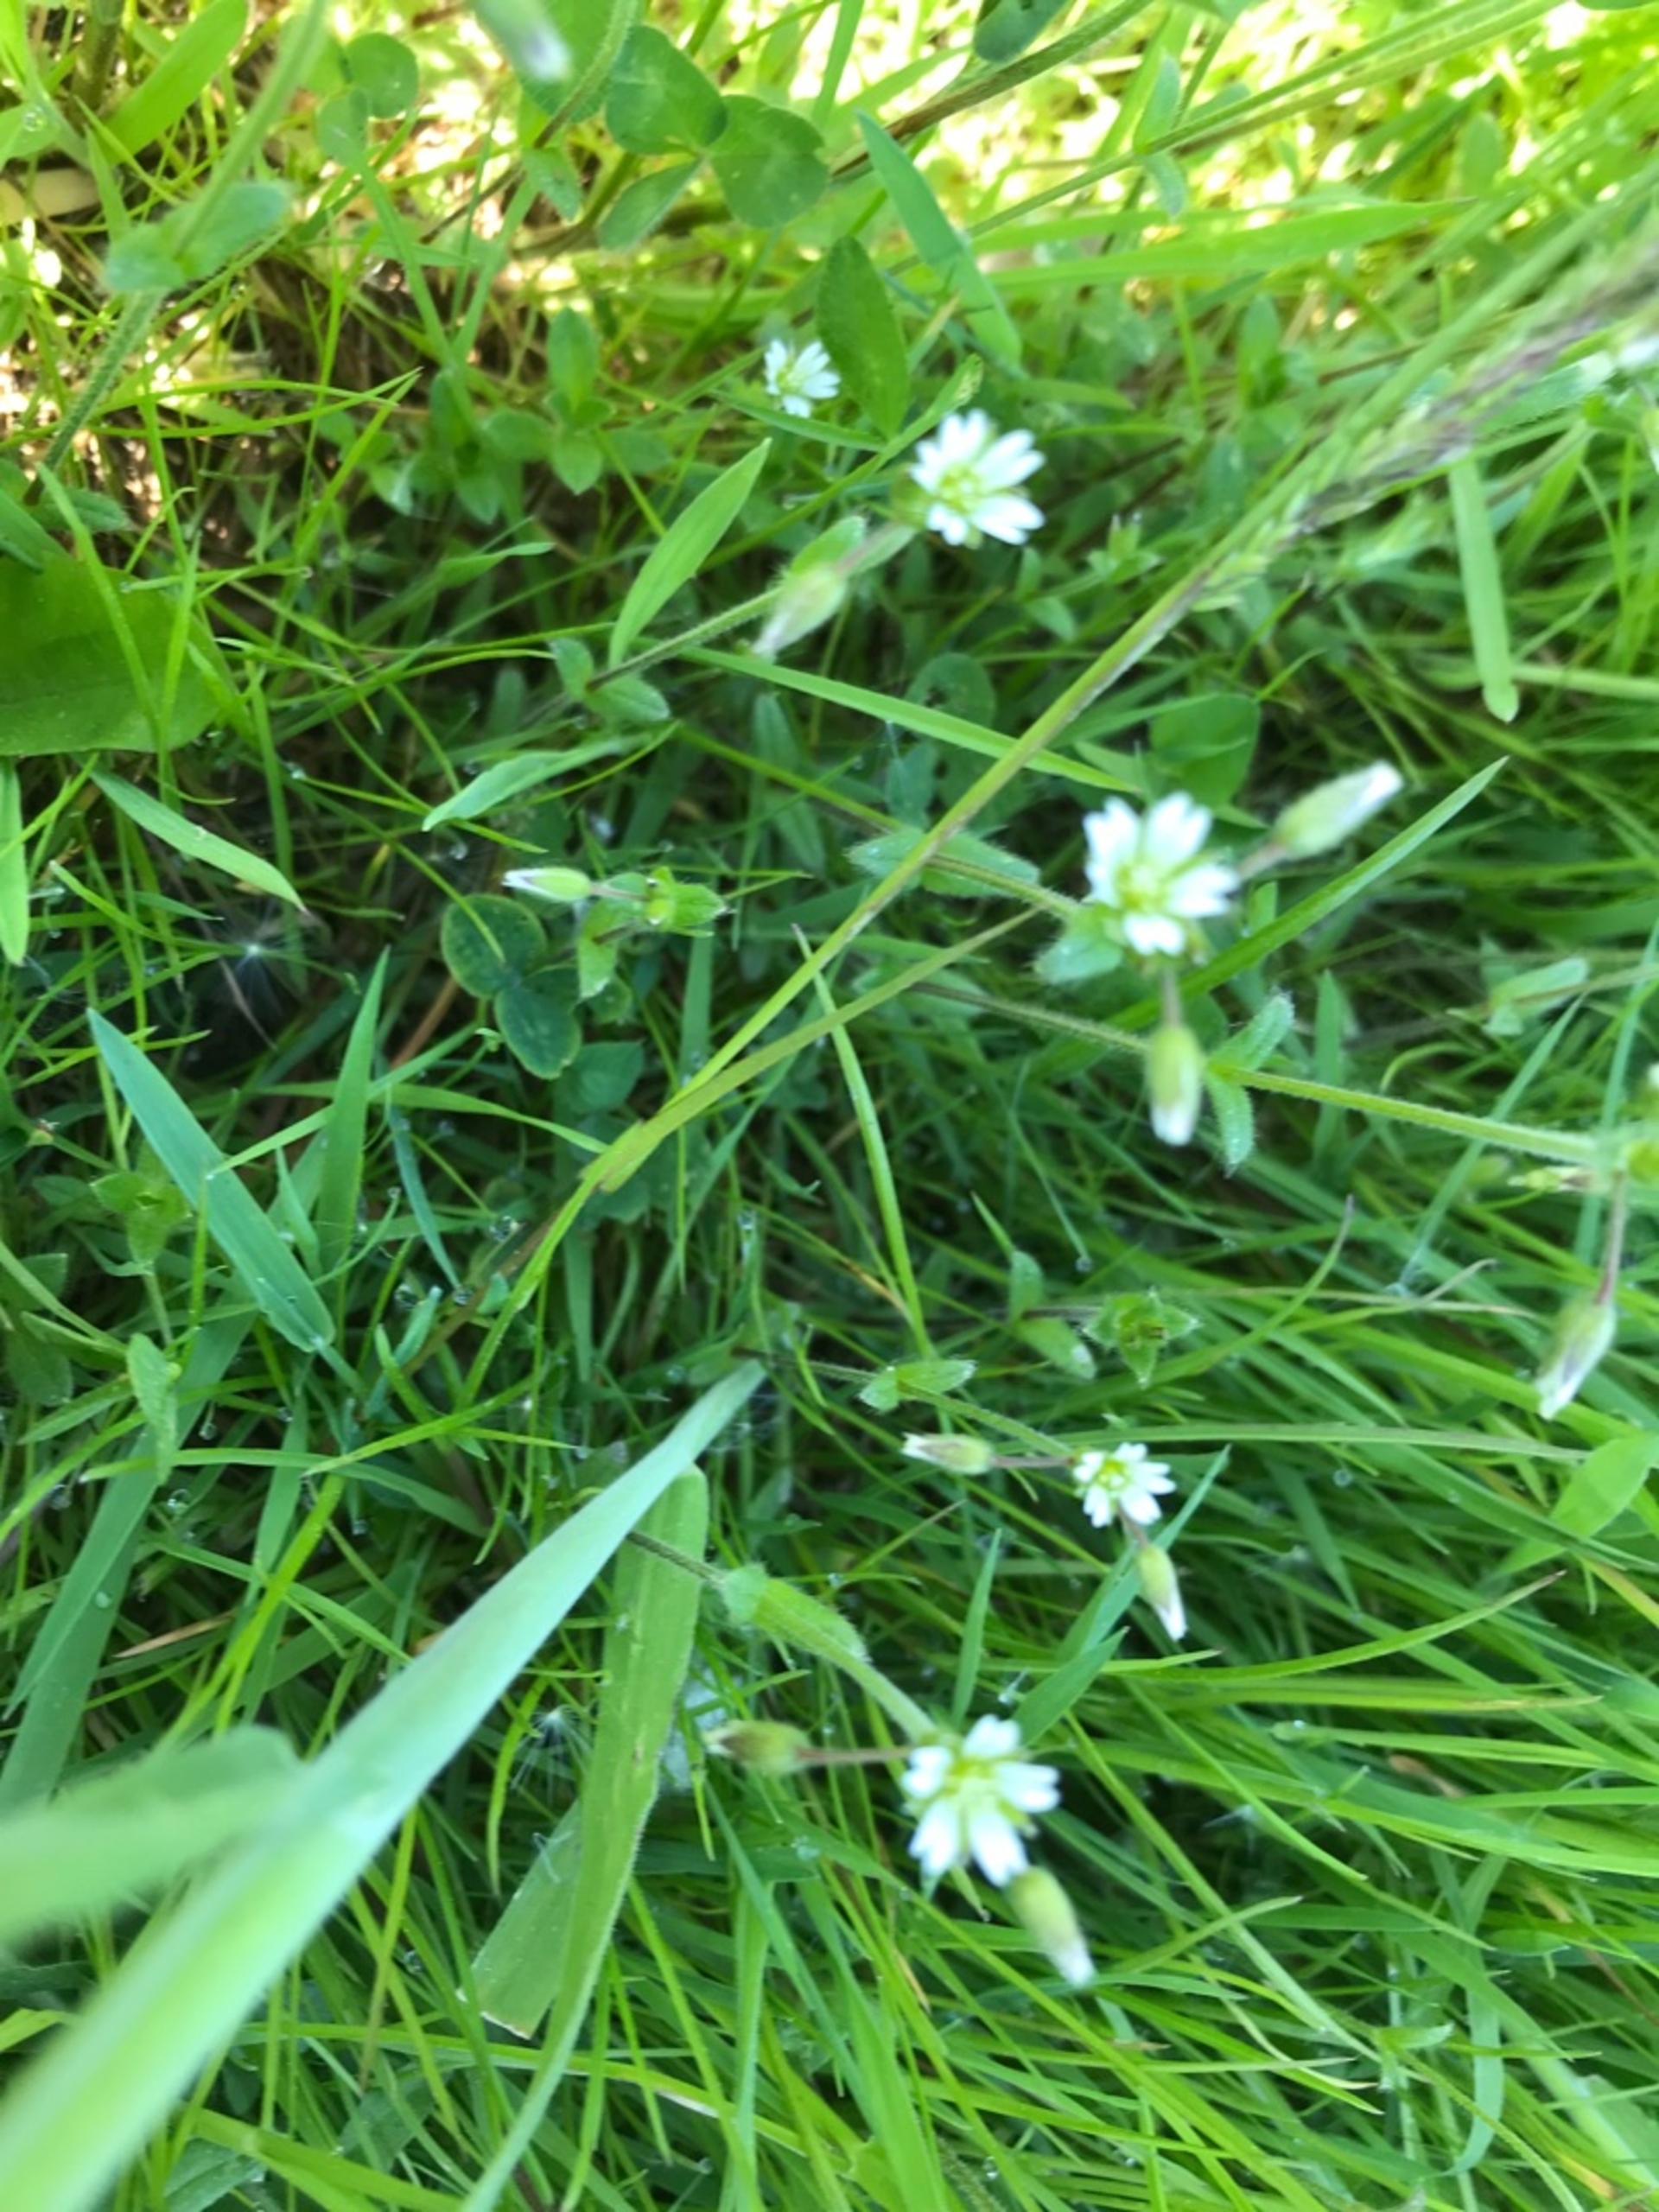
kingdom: Plantae
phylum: Tracheophyta
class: Magnoliopsida
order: Caryophyllales
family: Caryophyllaceae
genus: Cerastium
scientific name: Cerastium fontanum
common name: Almindelig hønsetarm
